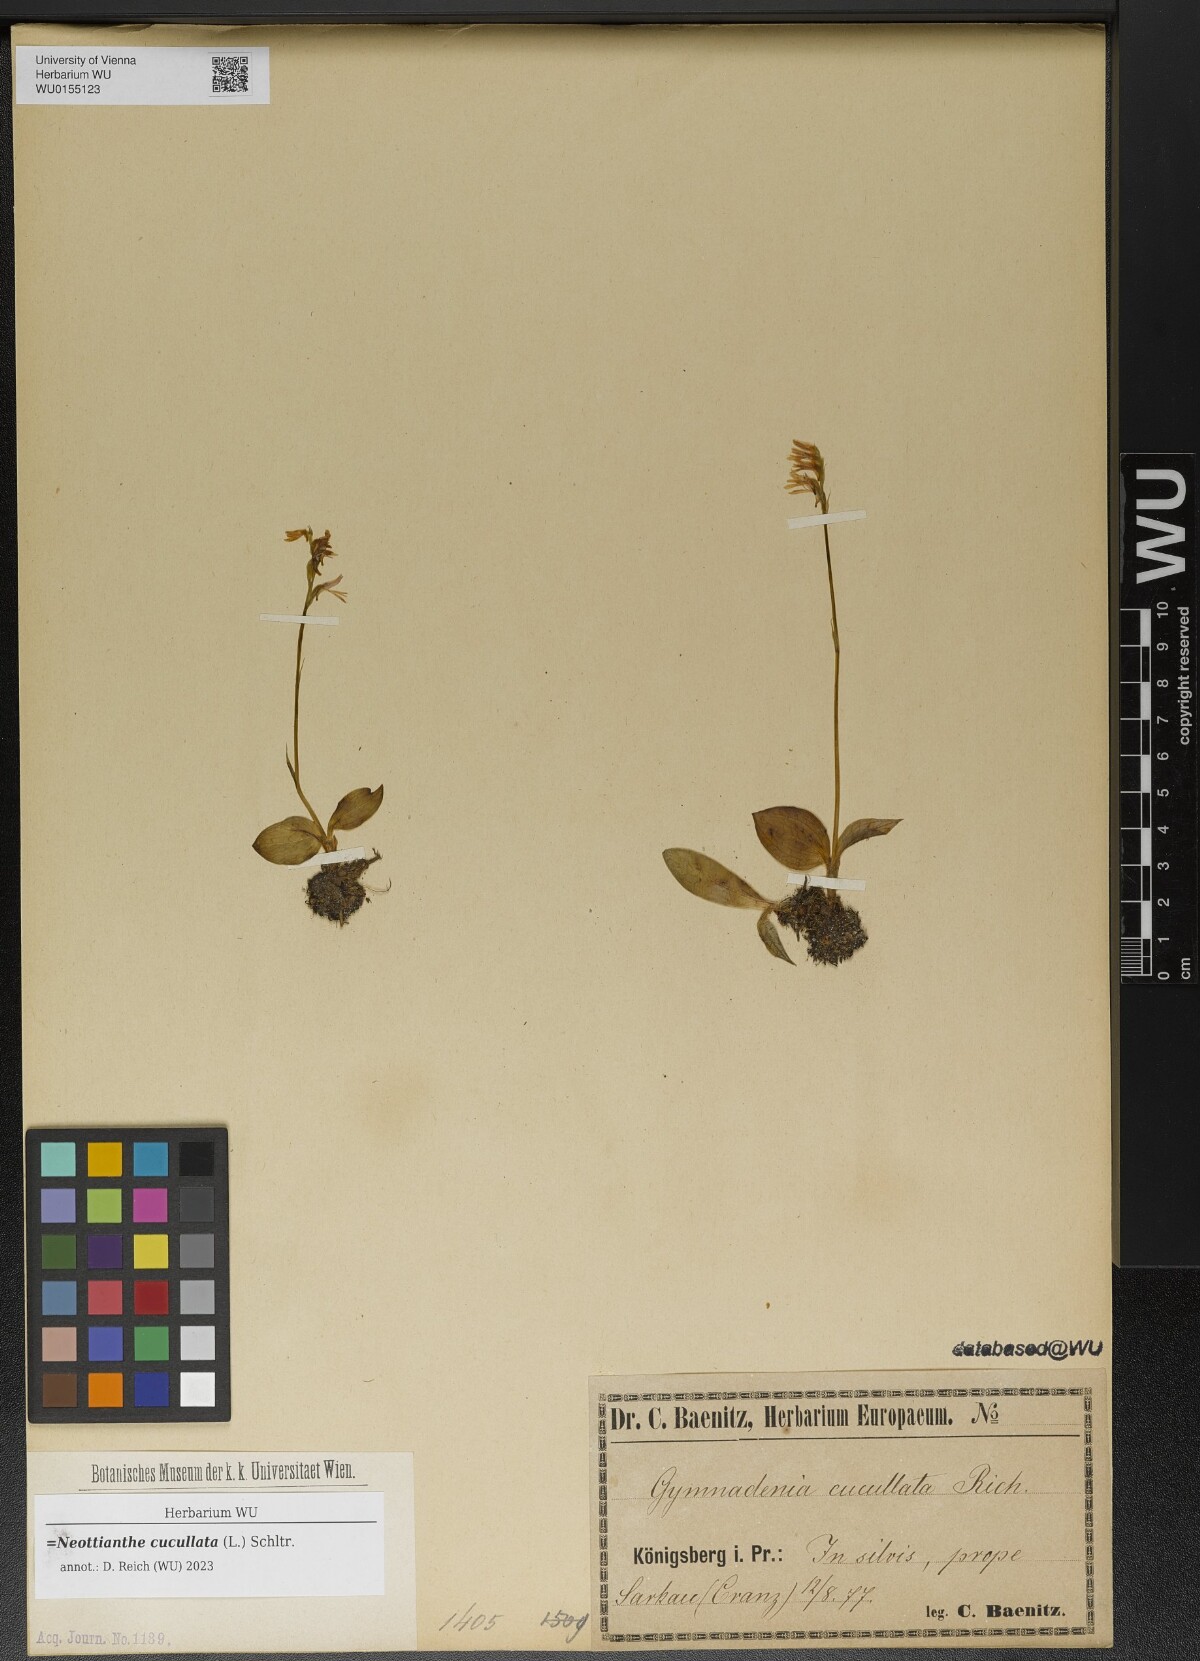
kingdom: Plantae
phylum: Tracheophyta
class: Liliopsida
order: Asparagales
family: Orchidaceae
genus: Hemipilia
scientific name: Hemipilia cucullata
